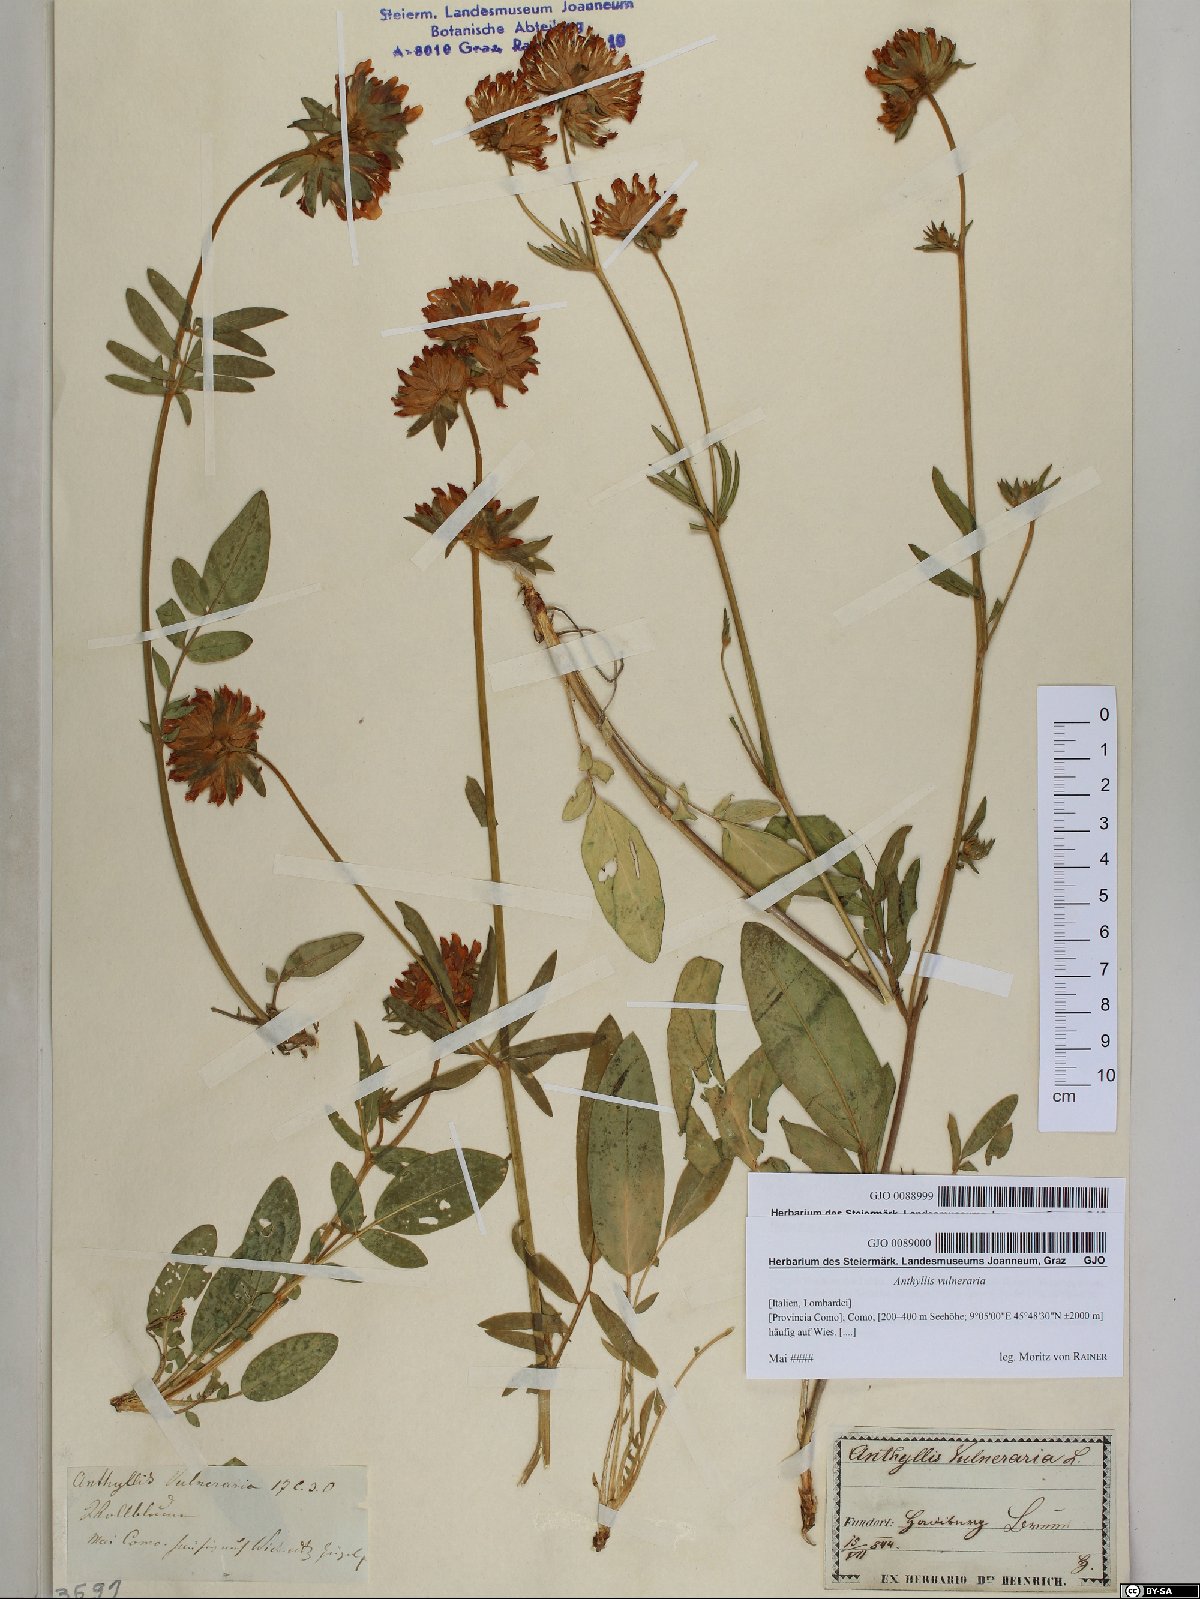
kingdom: Plantae
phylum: Tracheophyta
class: Magnoliopsida
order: Fabales
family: Fabaceae
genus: Anthyllis
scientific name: Anthyllis vulneraria
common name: Kidney vetch
